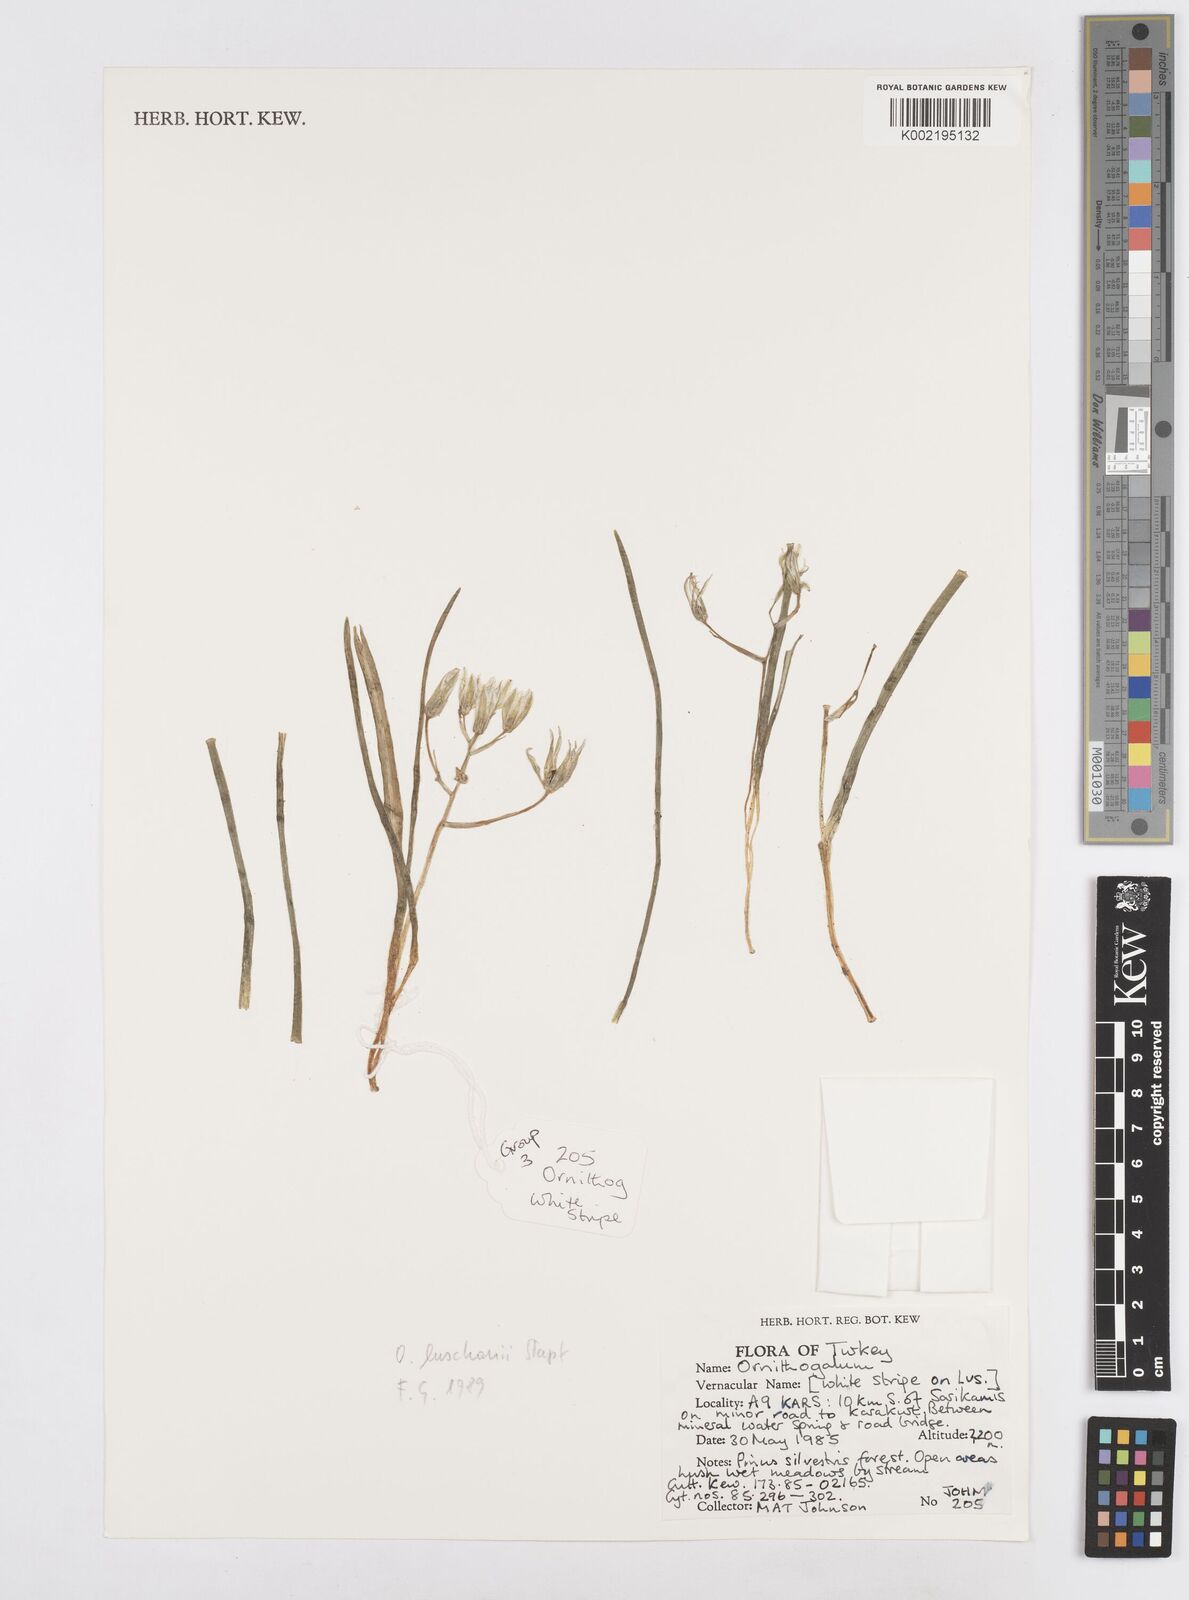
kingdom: Plantae
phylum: Tracheophyta
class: Liliopsida
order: Asparagales
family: Asparagaceae
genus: Ornithogalum
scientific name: Ornithogalum luschanii
